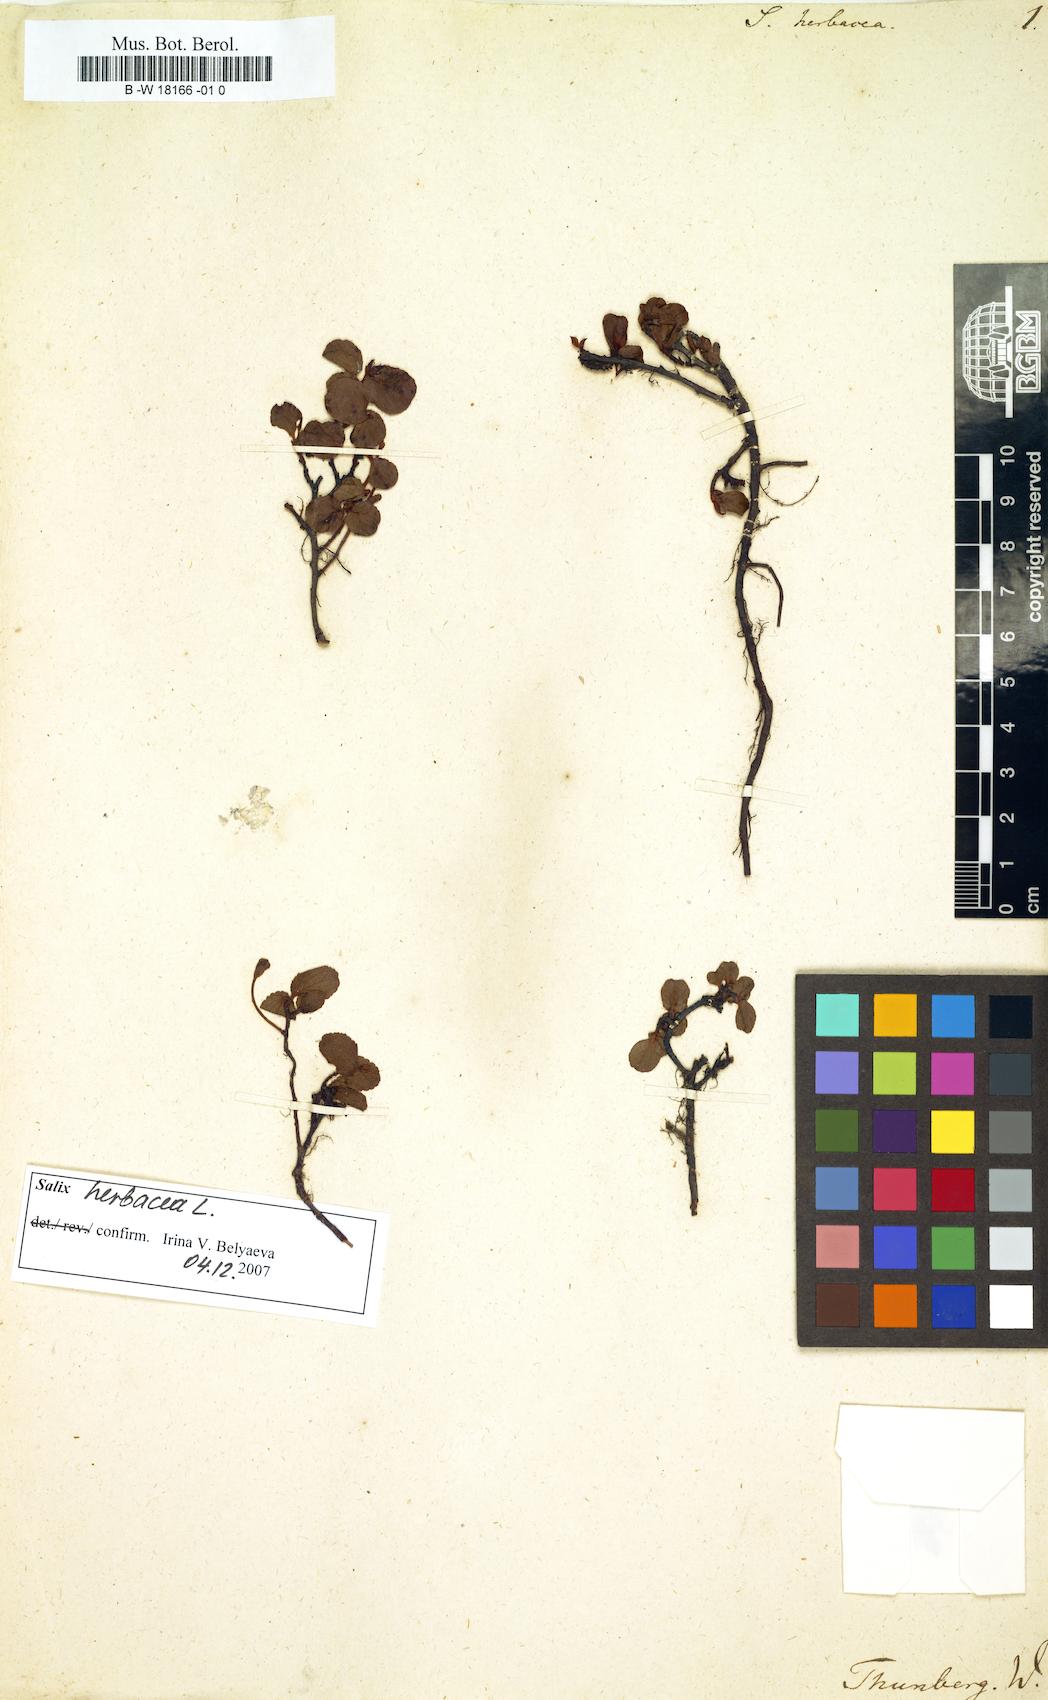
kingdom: Plantae
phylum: Tracheophyta
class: Magnoliopsida
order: Malpighiales
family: Salicaceae
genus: Salix
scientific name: Salix herbacea
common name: Dwarf willow
